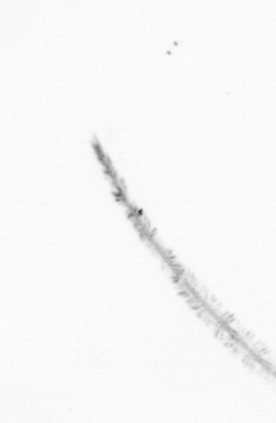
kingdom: Chromista
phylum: Ochrophyta
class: Bacillariophyceae
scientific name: Bacillariophyceae
